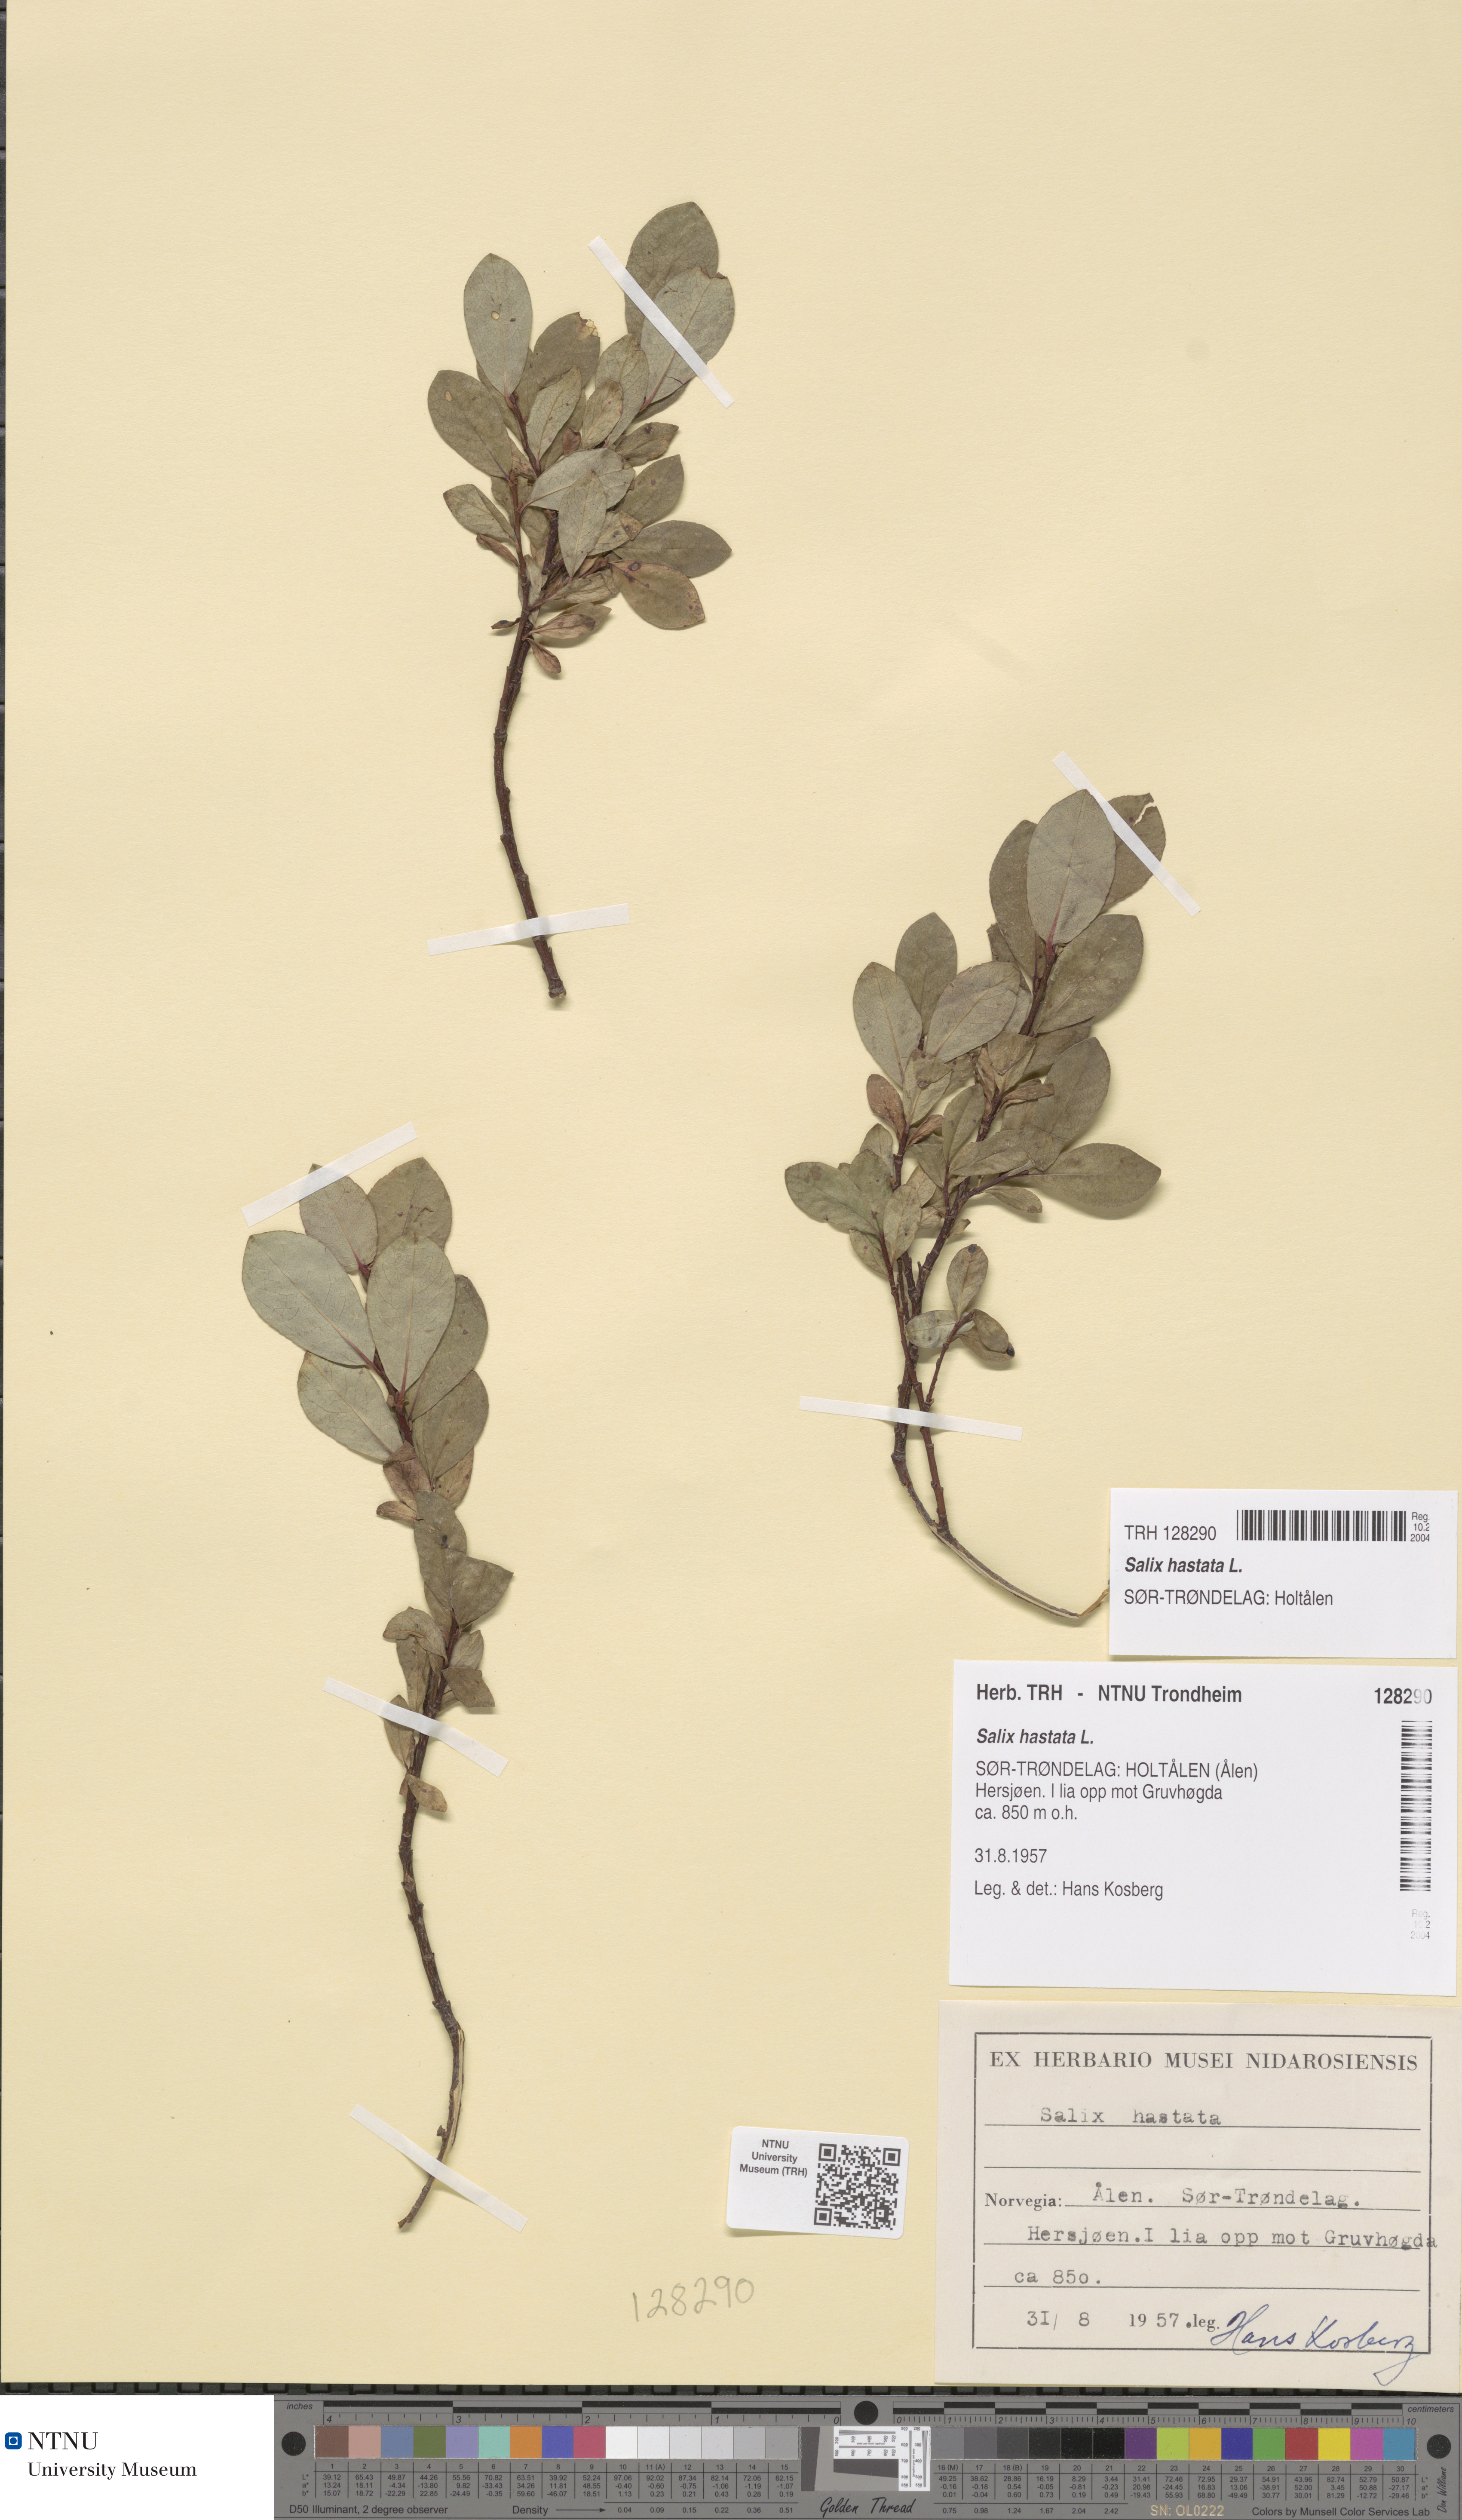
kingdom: Plantae
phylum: Tracheophyta
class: Magnoliopsida
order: Malpighiales
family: Salicaceae
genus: Salix
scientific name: Salix hastata
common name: Halberd willow
